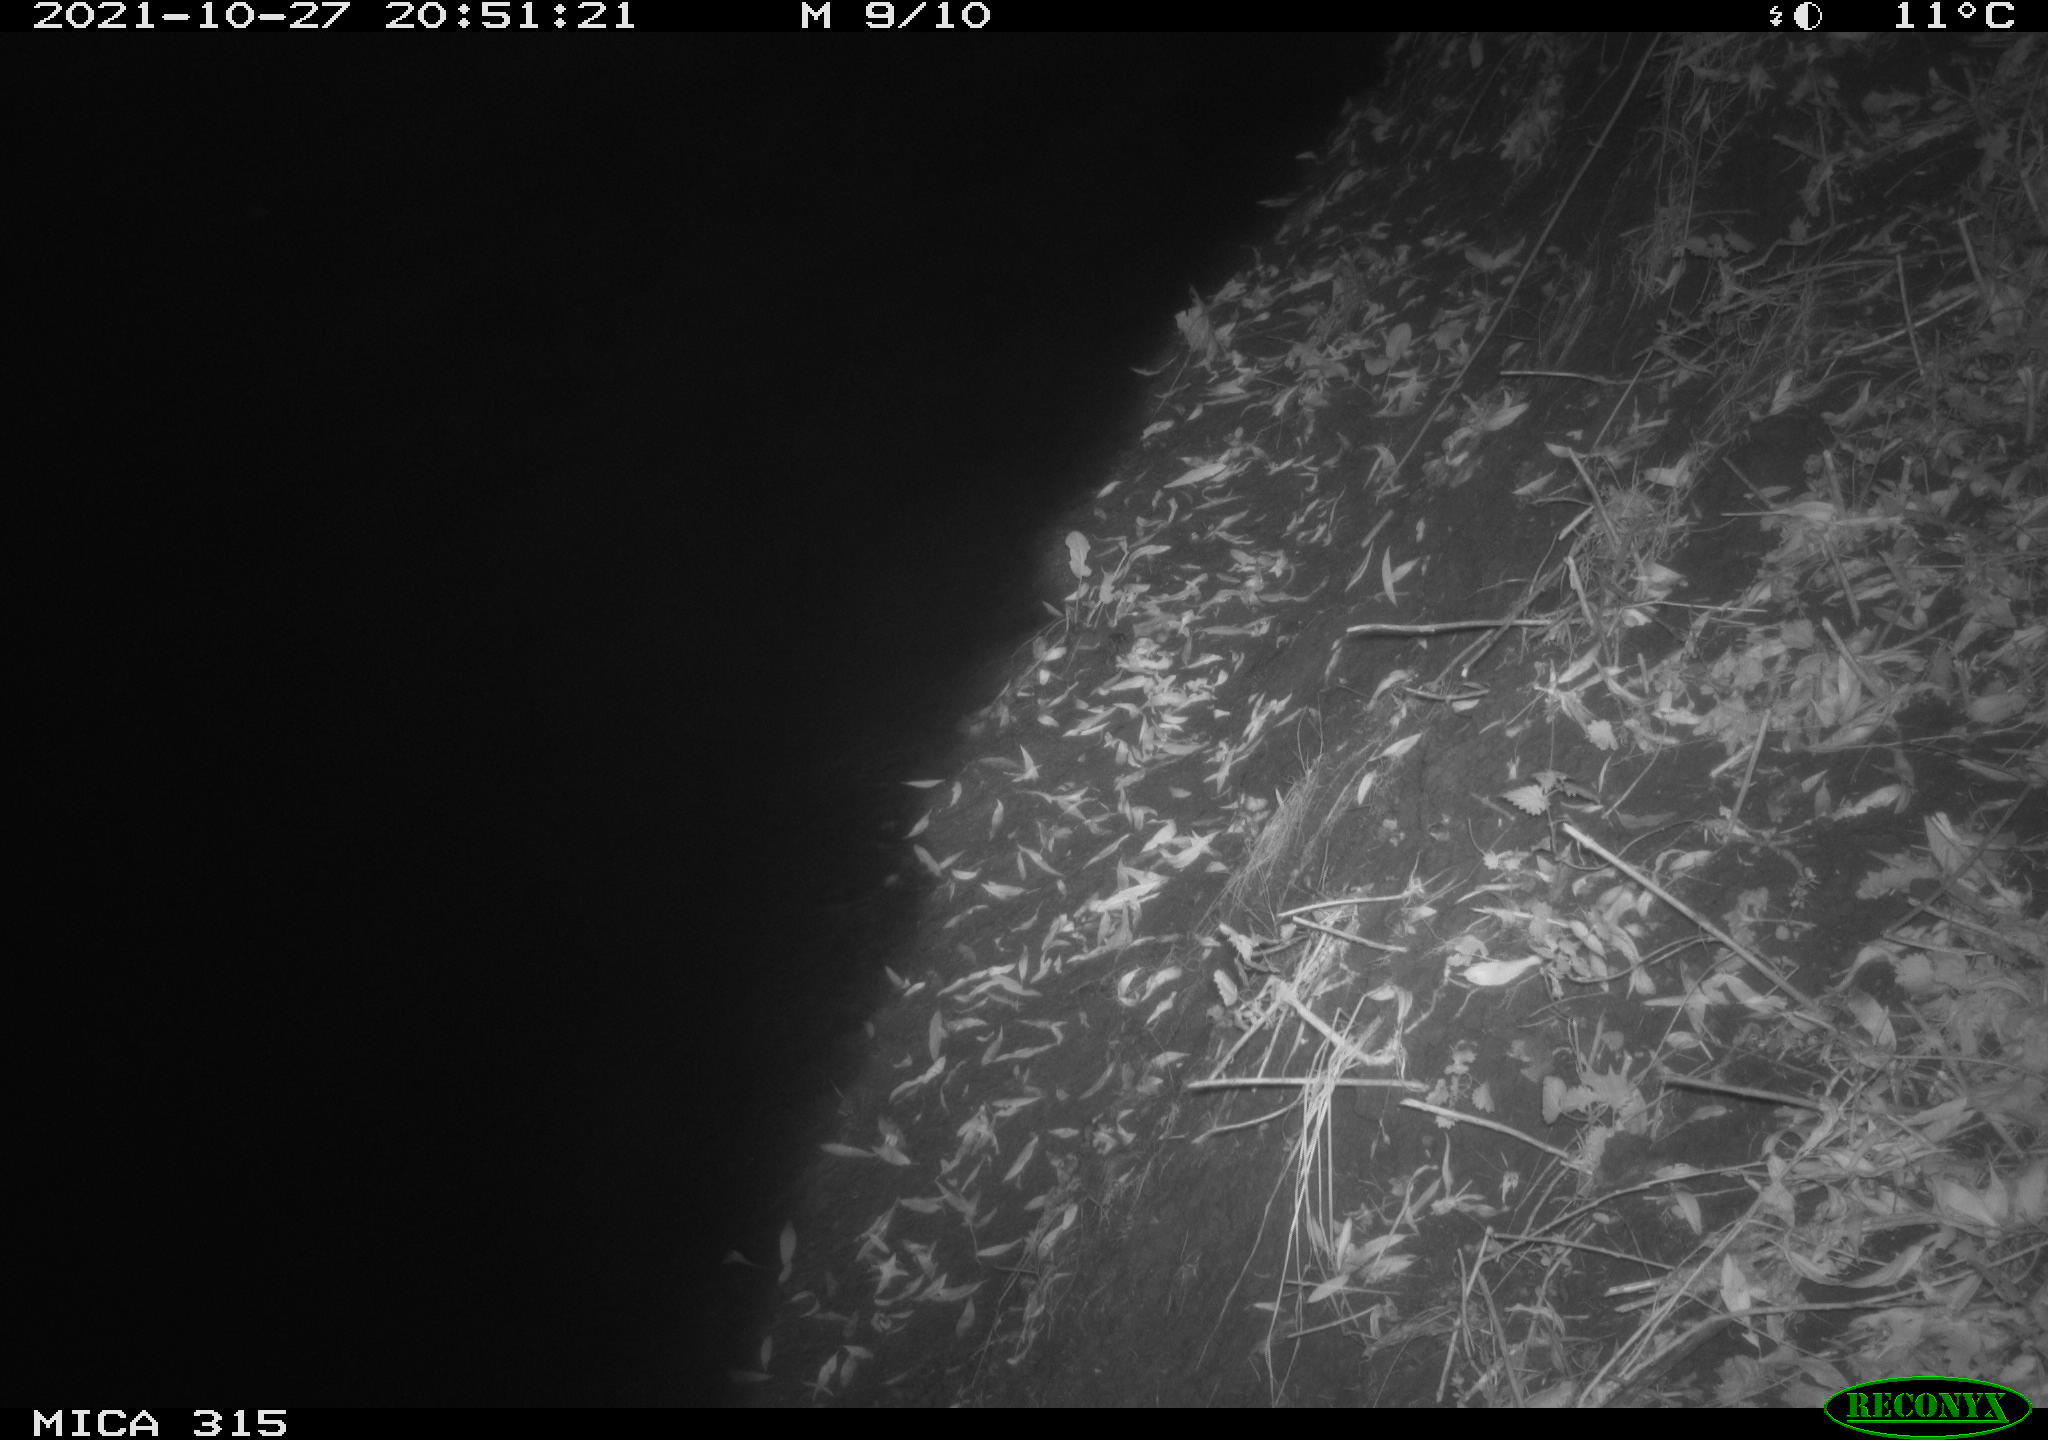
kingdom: Animalia
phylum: Chordata
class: Mammalia
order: Rodentia
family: Muridae
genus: Rattus
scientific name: Rattus norvegicus
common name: Brown rat
